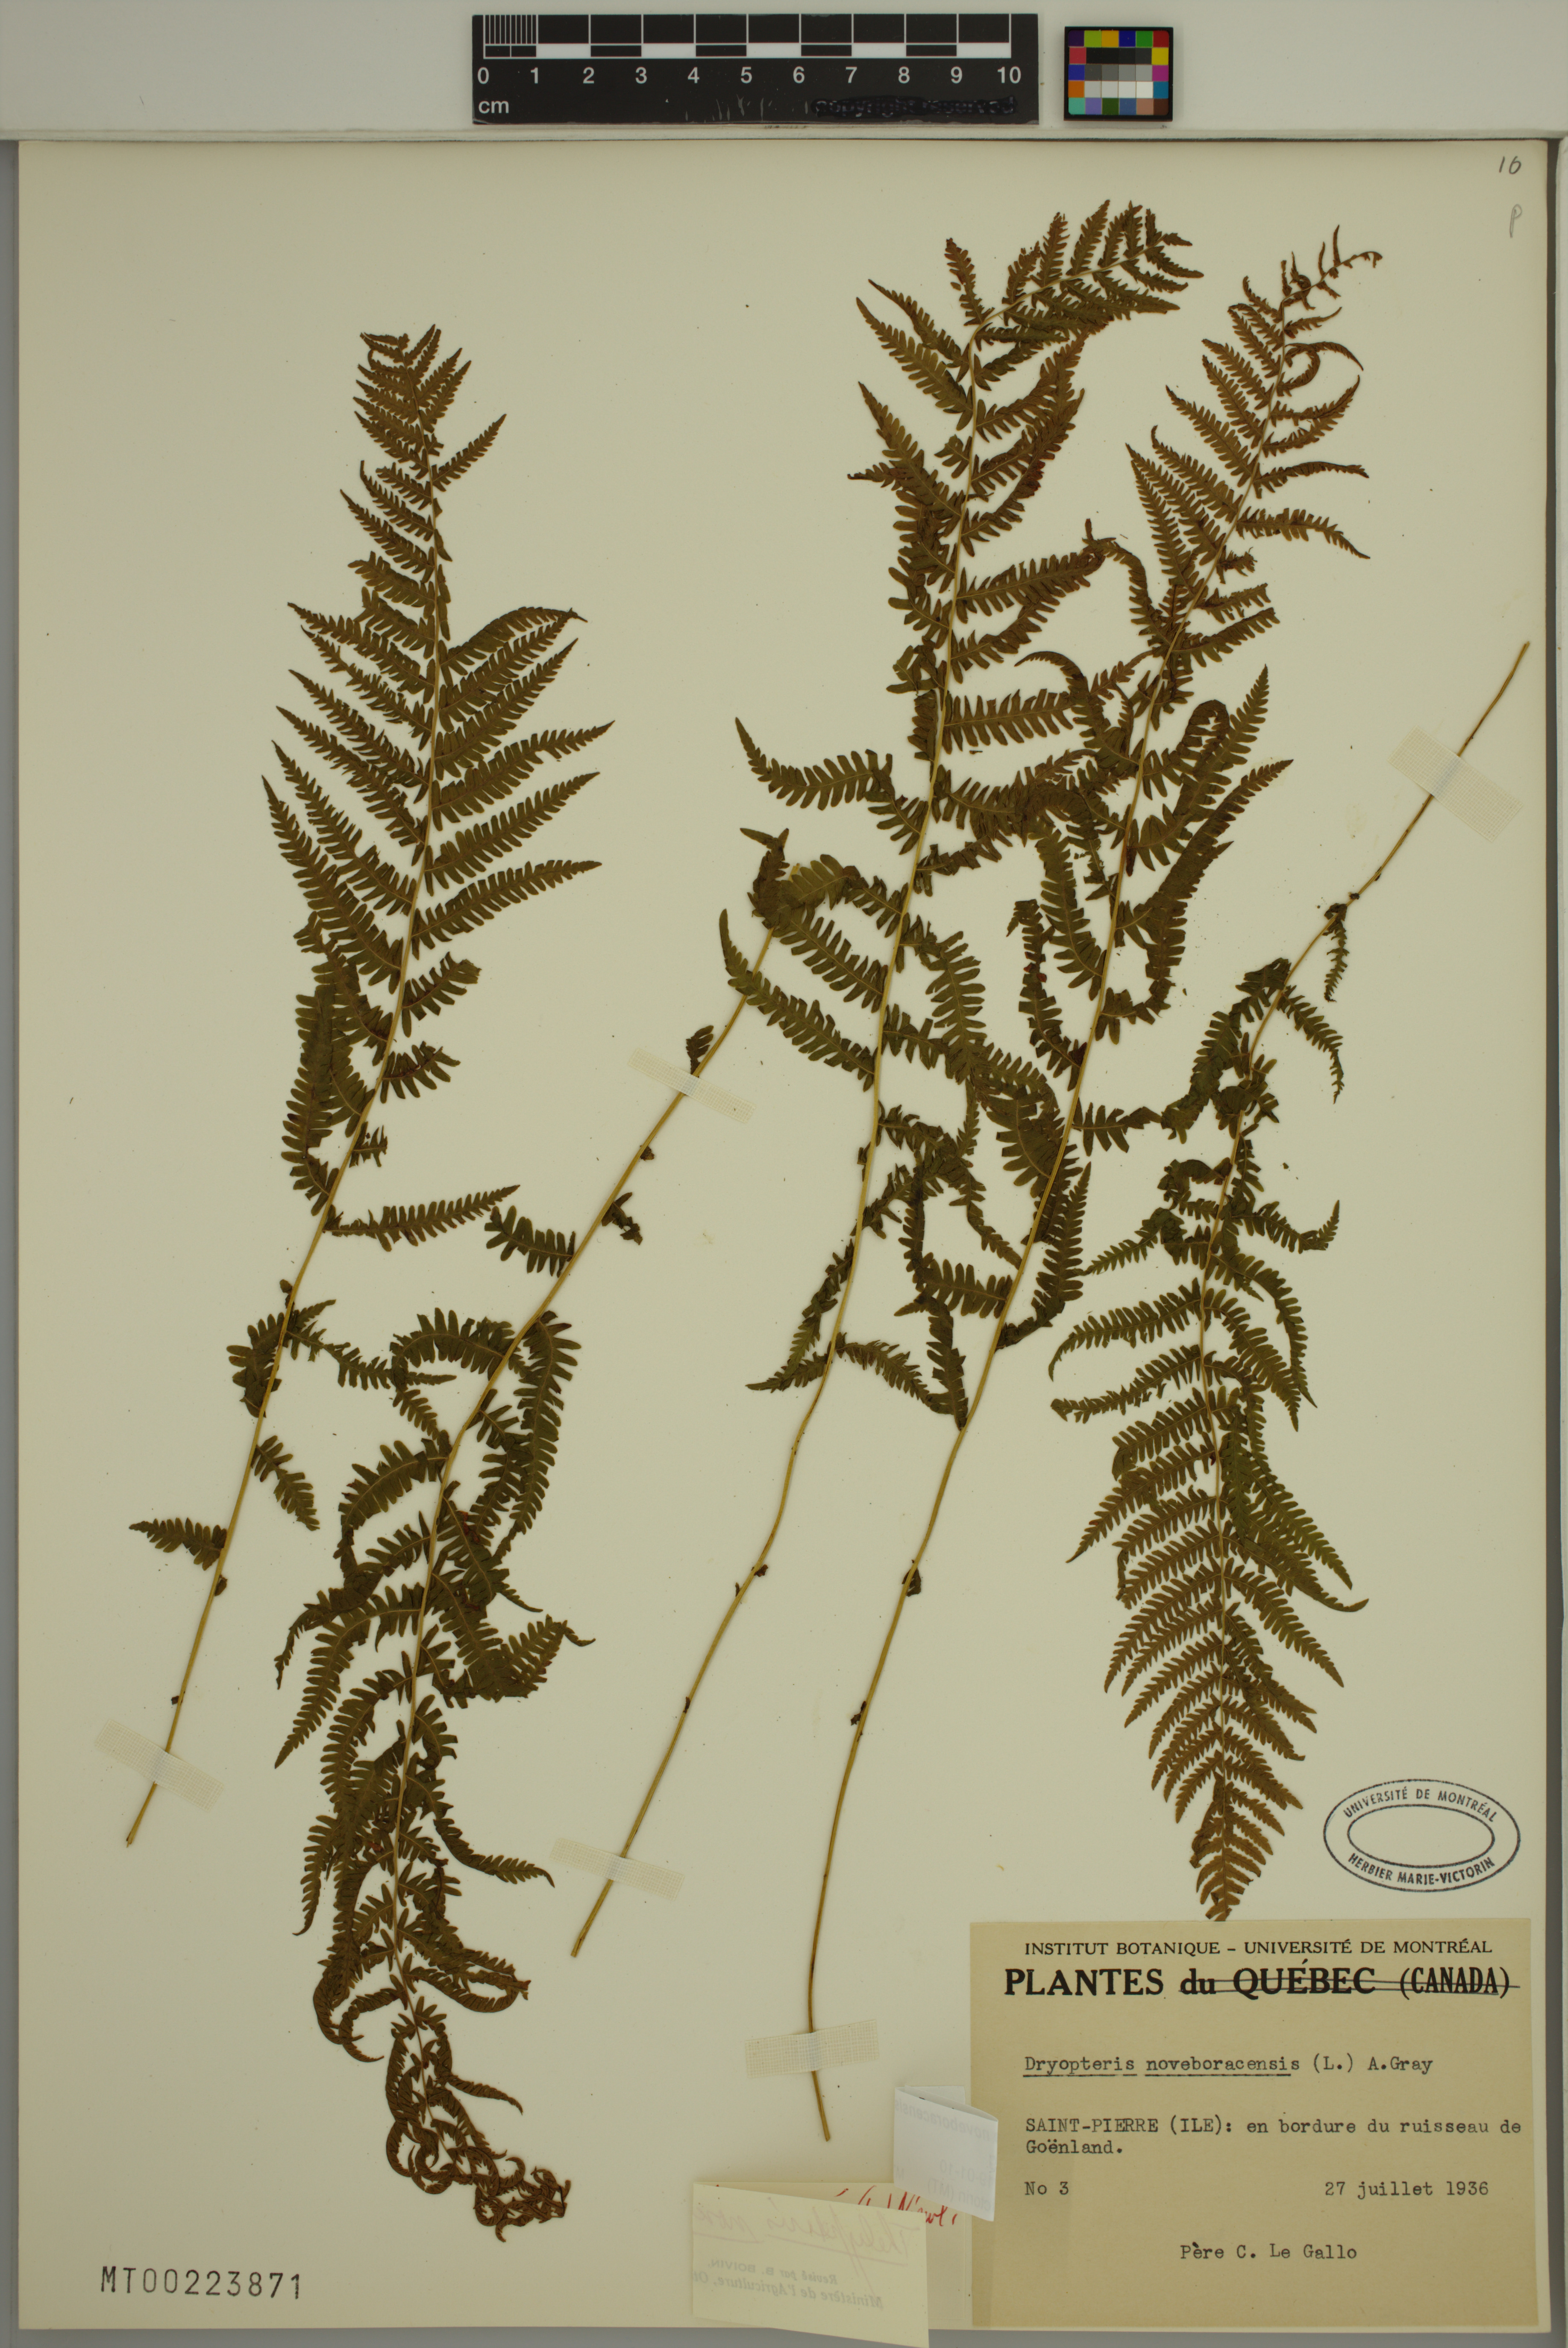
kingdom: Plantae
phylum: Tracheophyta
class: Polypodiopsida
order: Polypodiales
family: Thelypteridaceae
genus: Amauropelta
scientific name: Amauropelta noveboracensis
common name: New york fern
